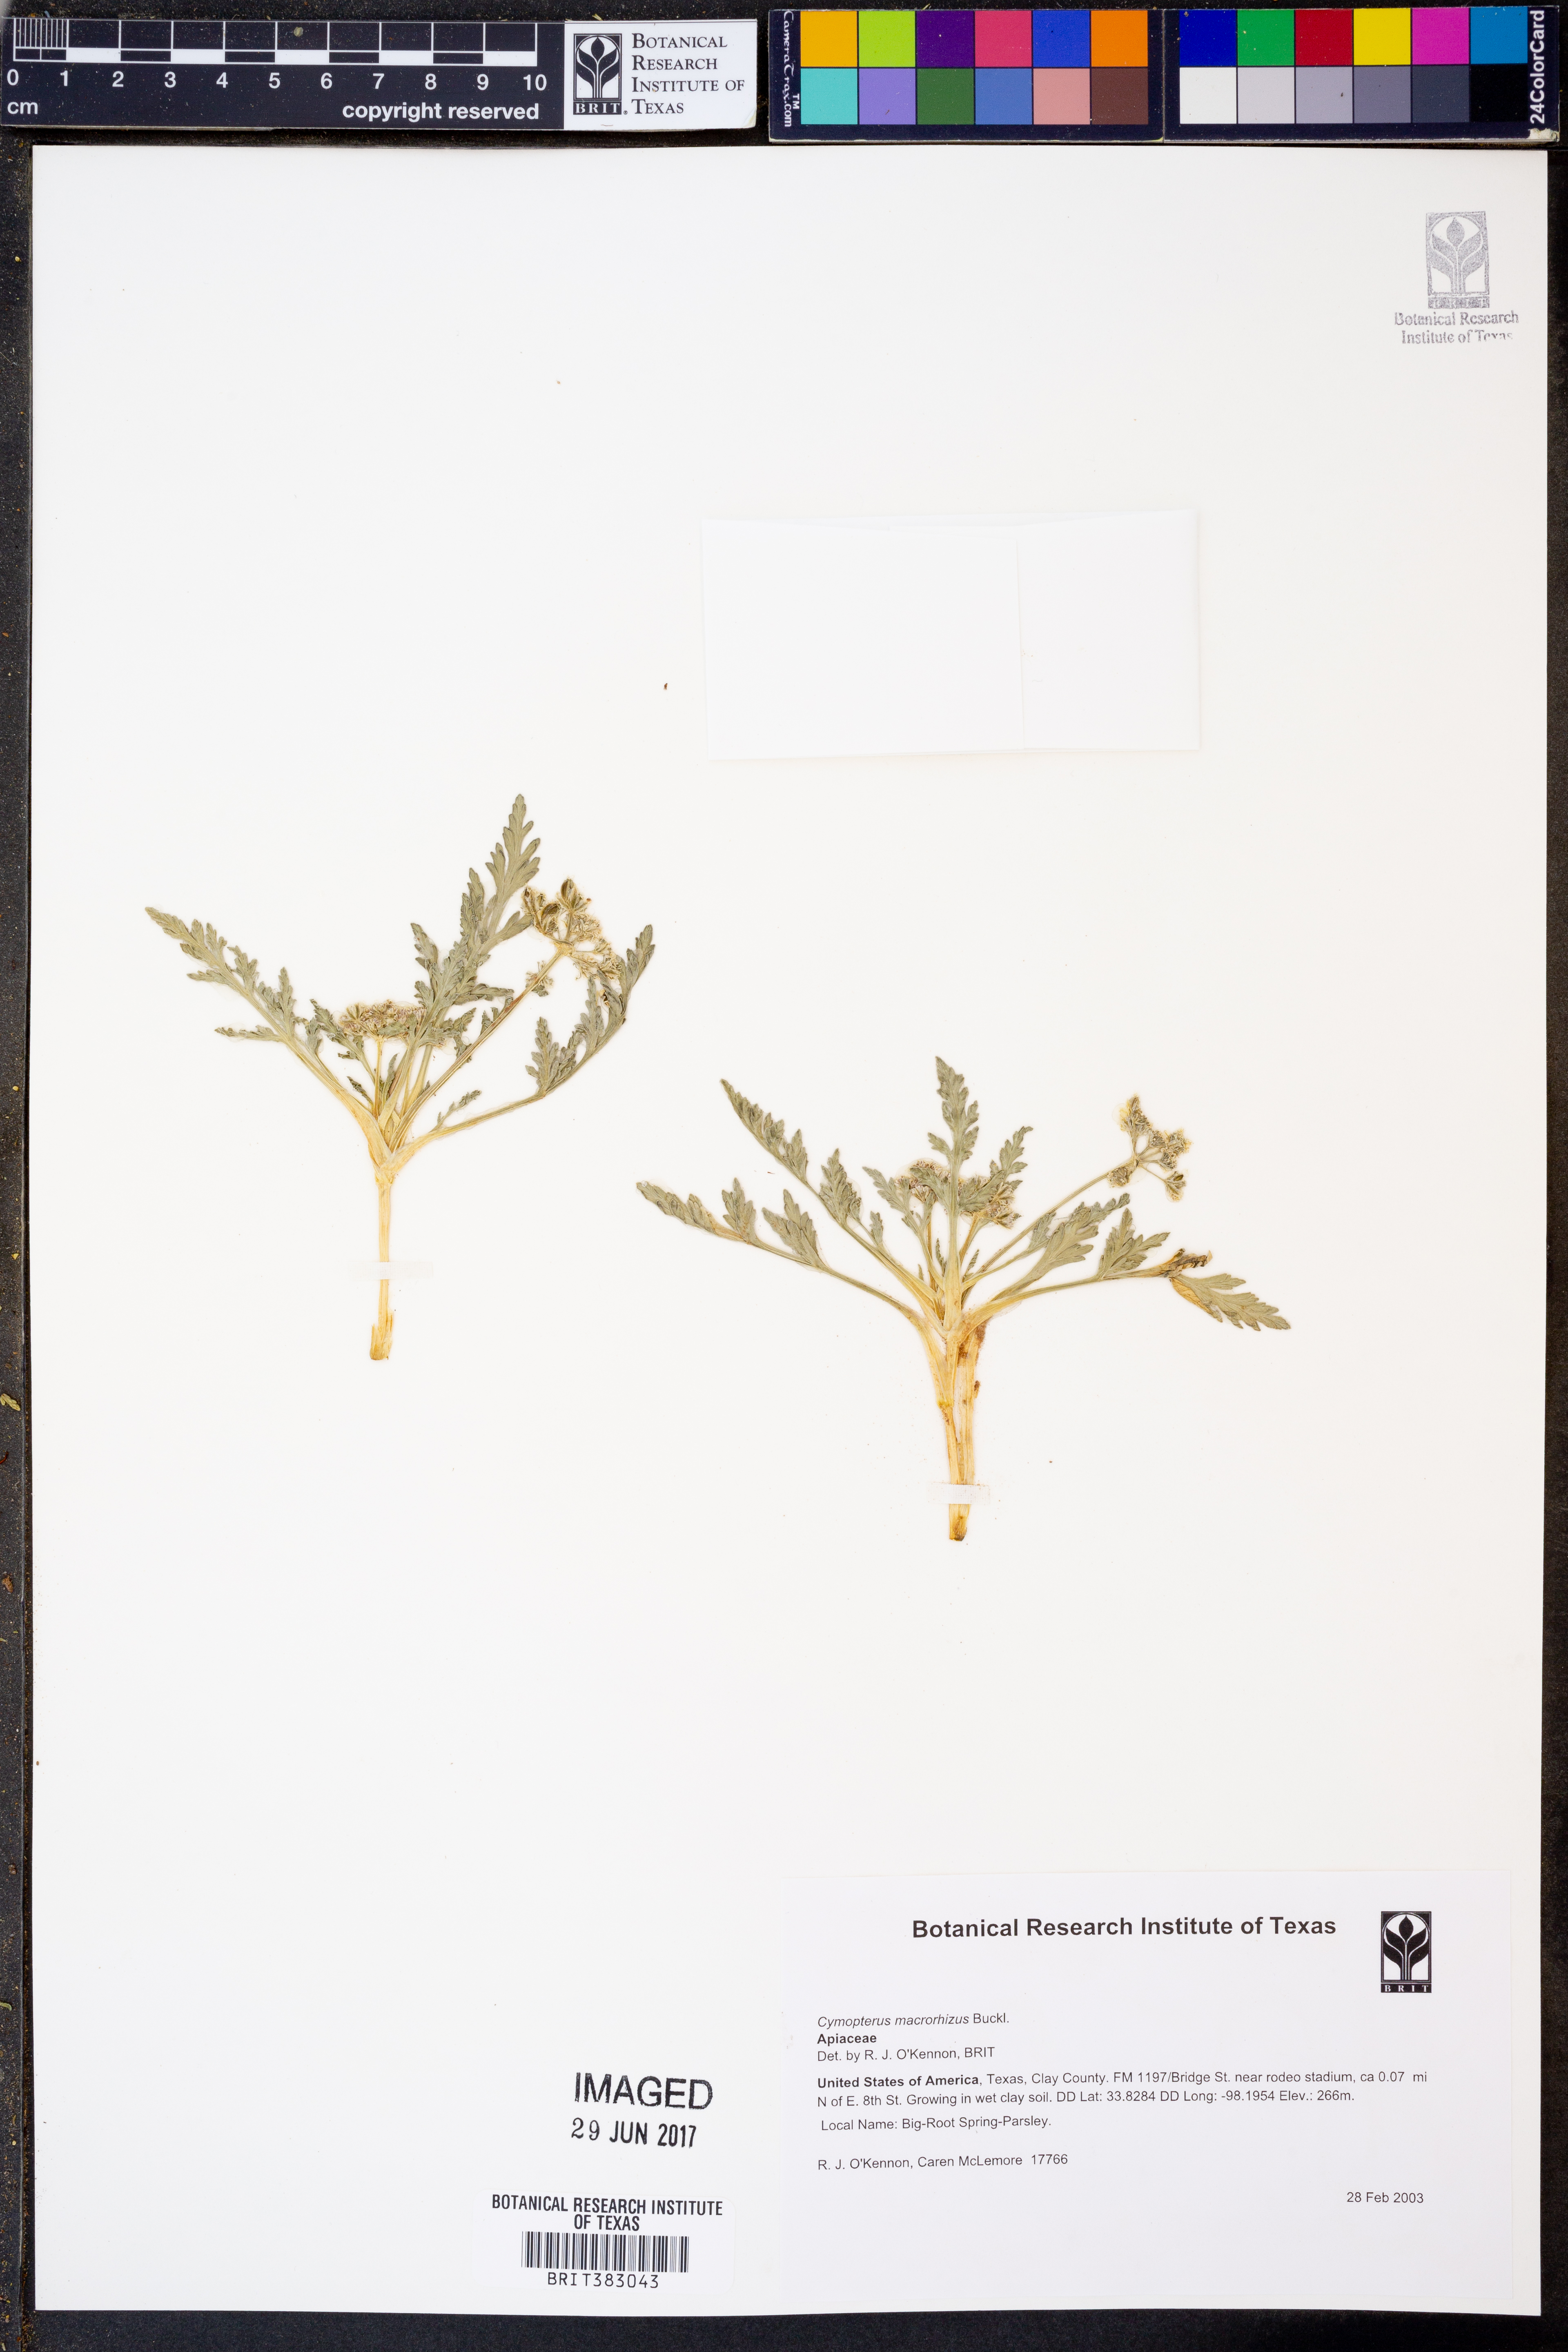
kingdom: Plantae
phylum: Tracheophyta
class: Magnoliopsida
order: Apiales
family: Apiaceae
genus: Vesper
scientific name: Vesper macrorhizus
